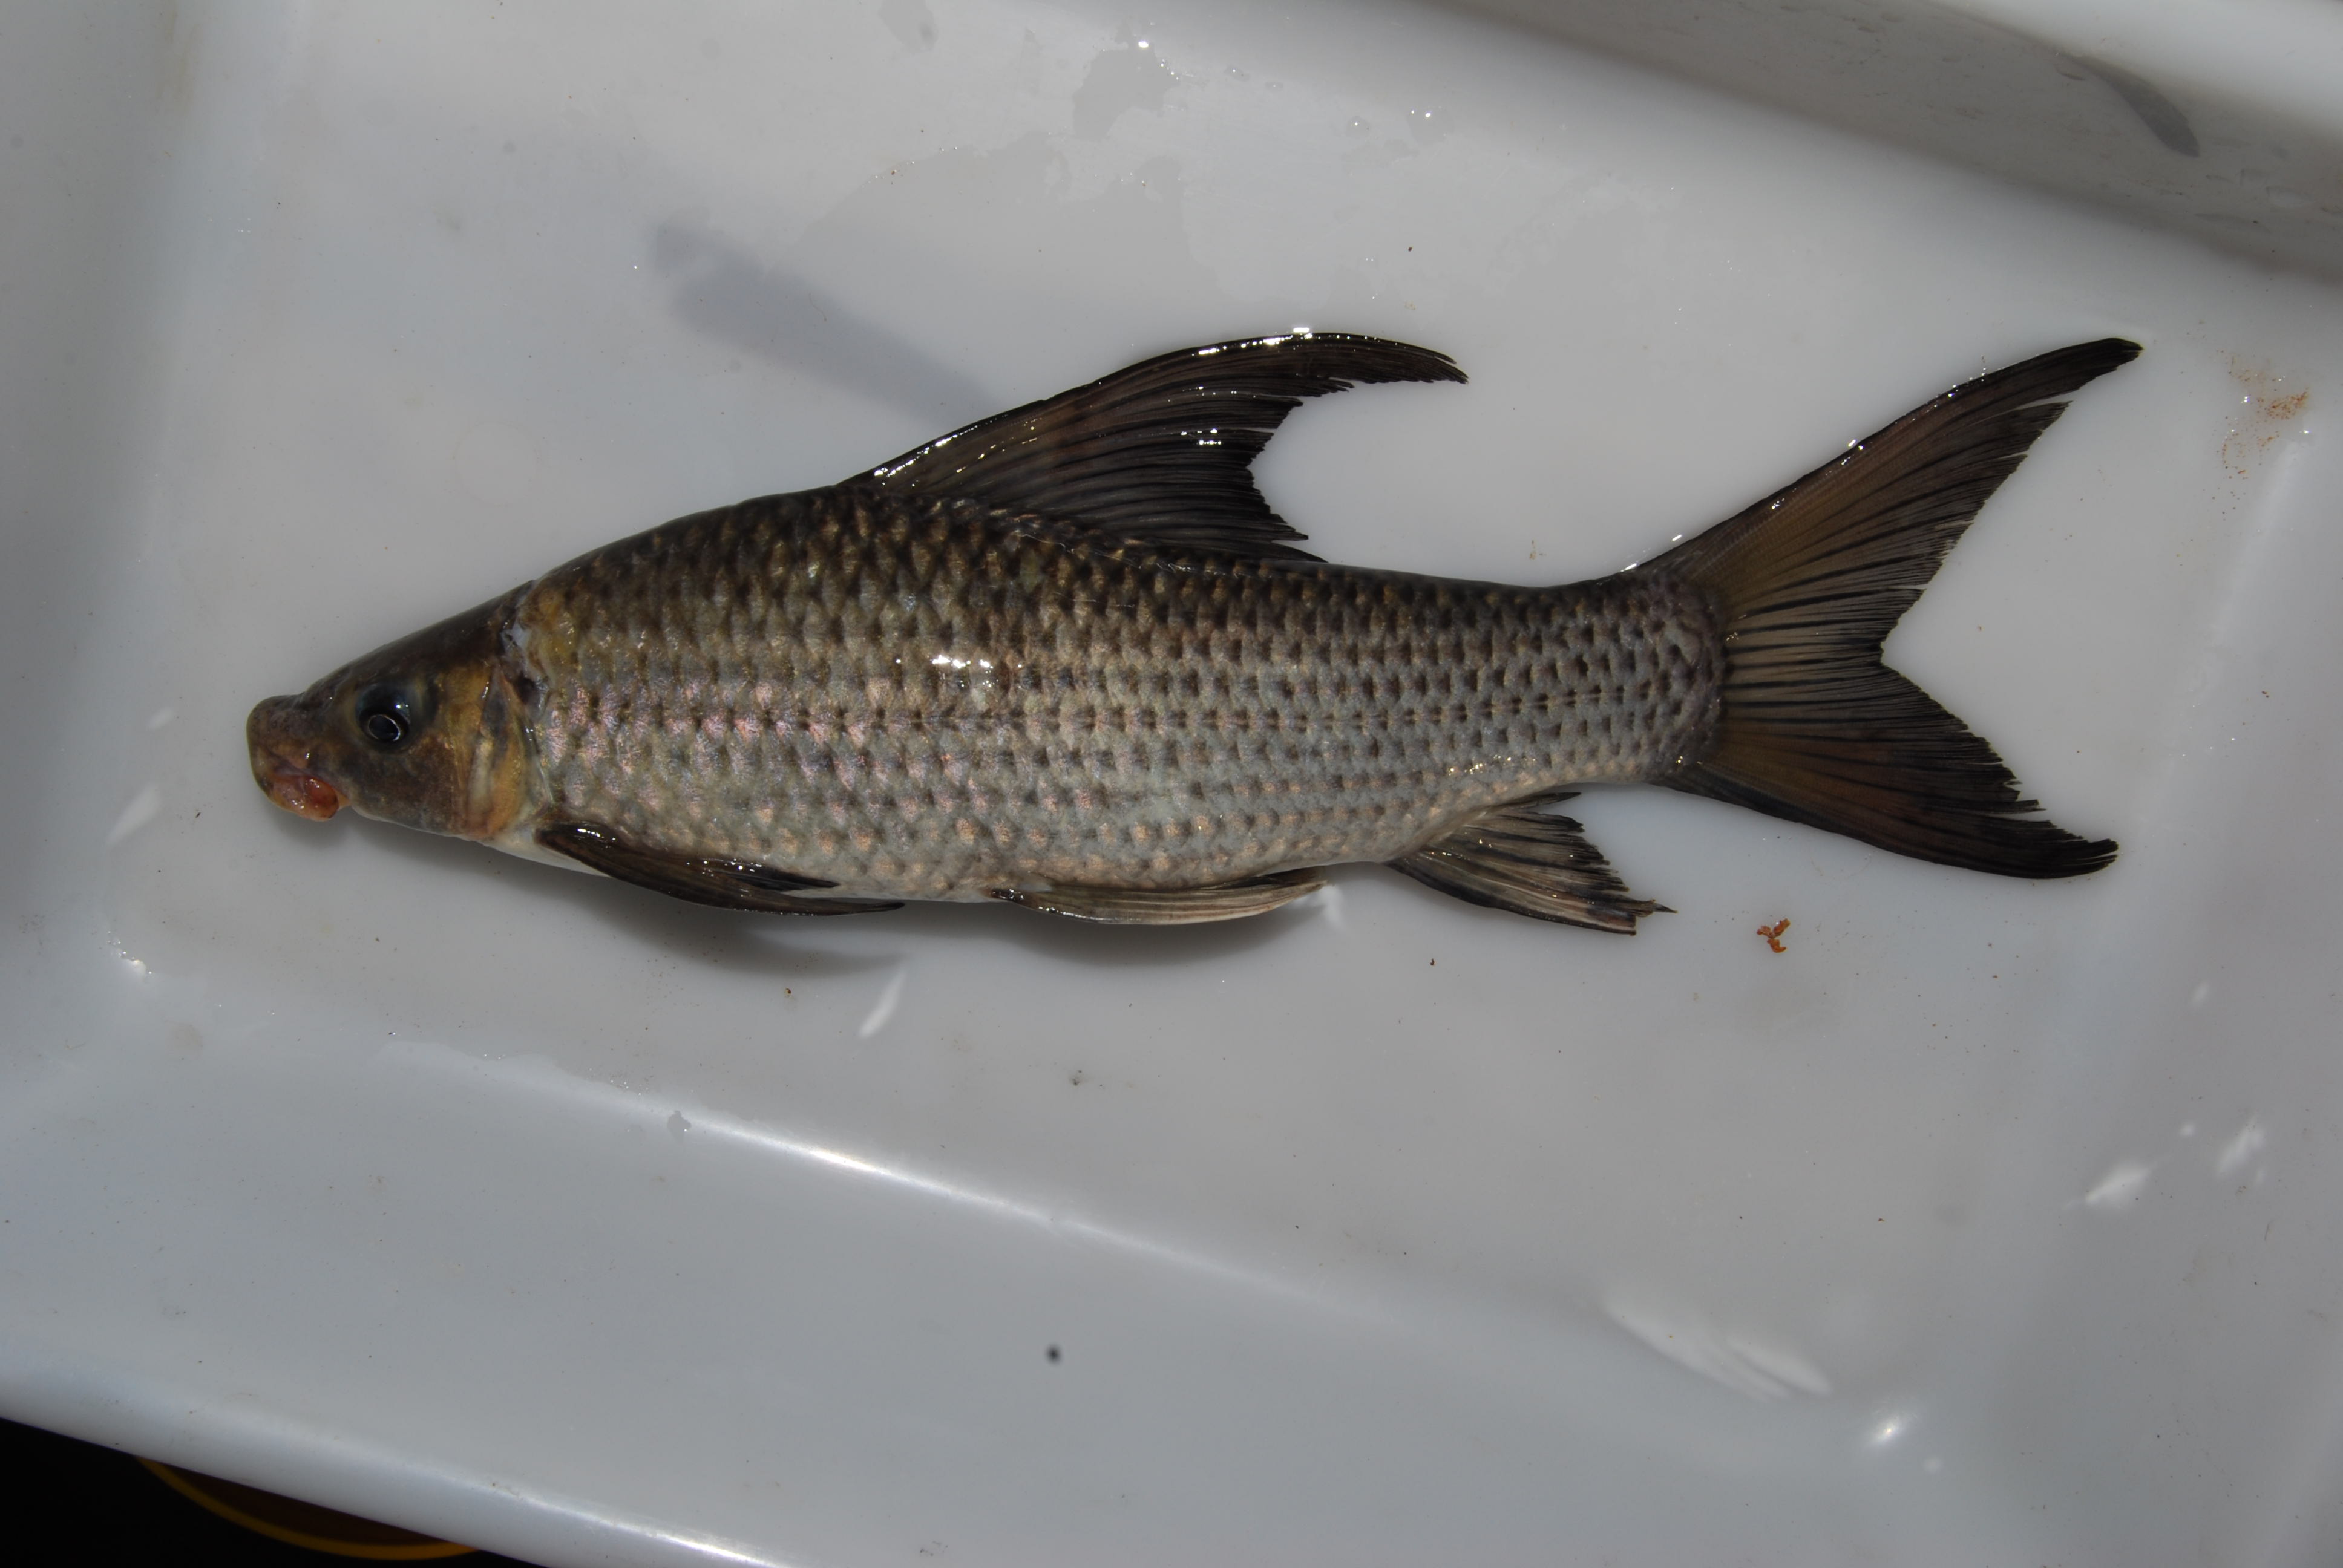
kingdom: Animalia
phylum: Chordata
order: Cypriniformes
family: Cyprinidae
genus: Labeo
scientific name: Labeo lunatus
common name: Upper zambezi labeo
